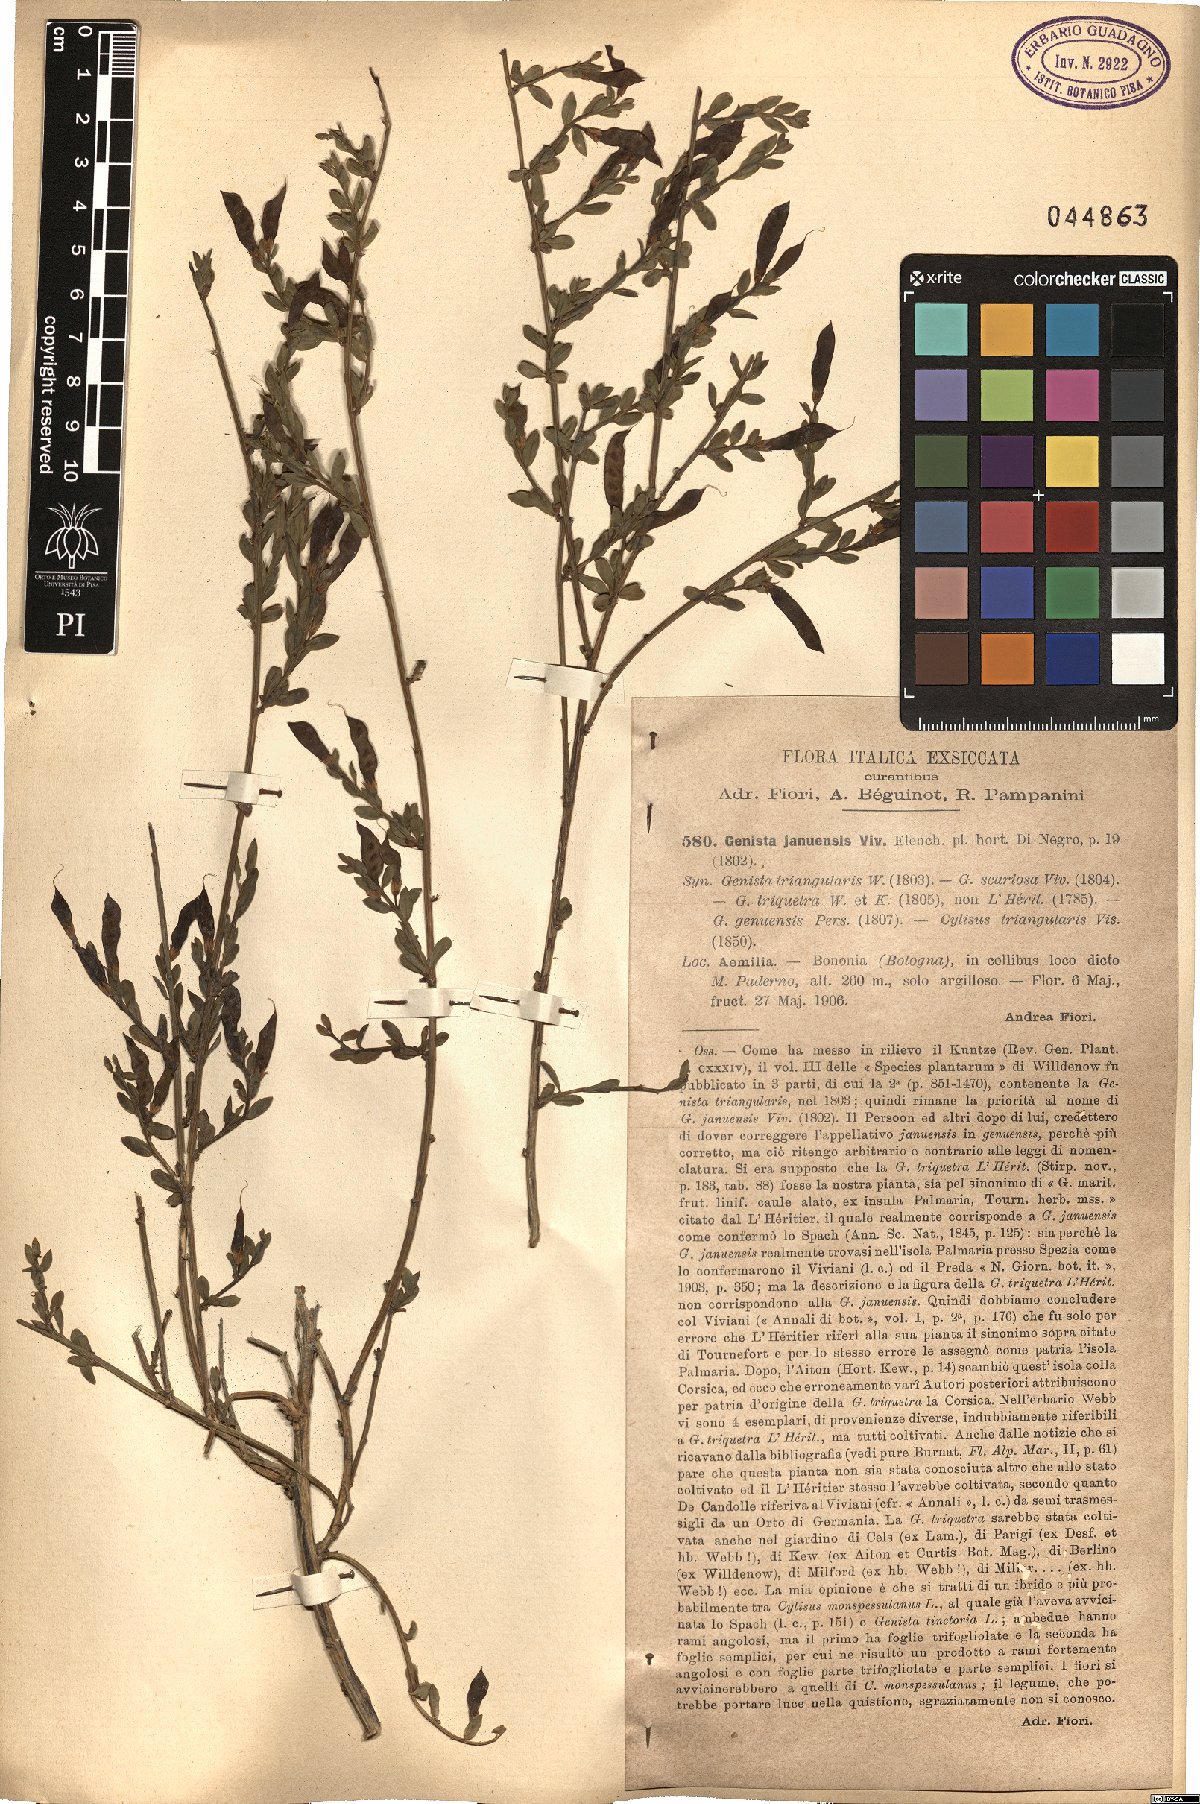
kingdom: Plantae
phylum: Tracheophyta
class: Magnoliopsida
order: Fabales
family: Fabaceae
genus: Genista
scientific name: Genista januensis
